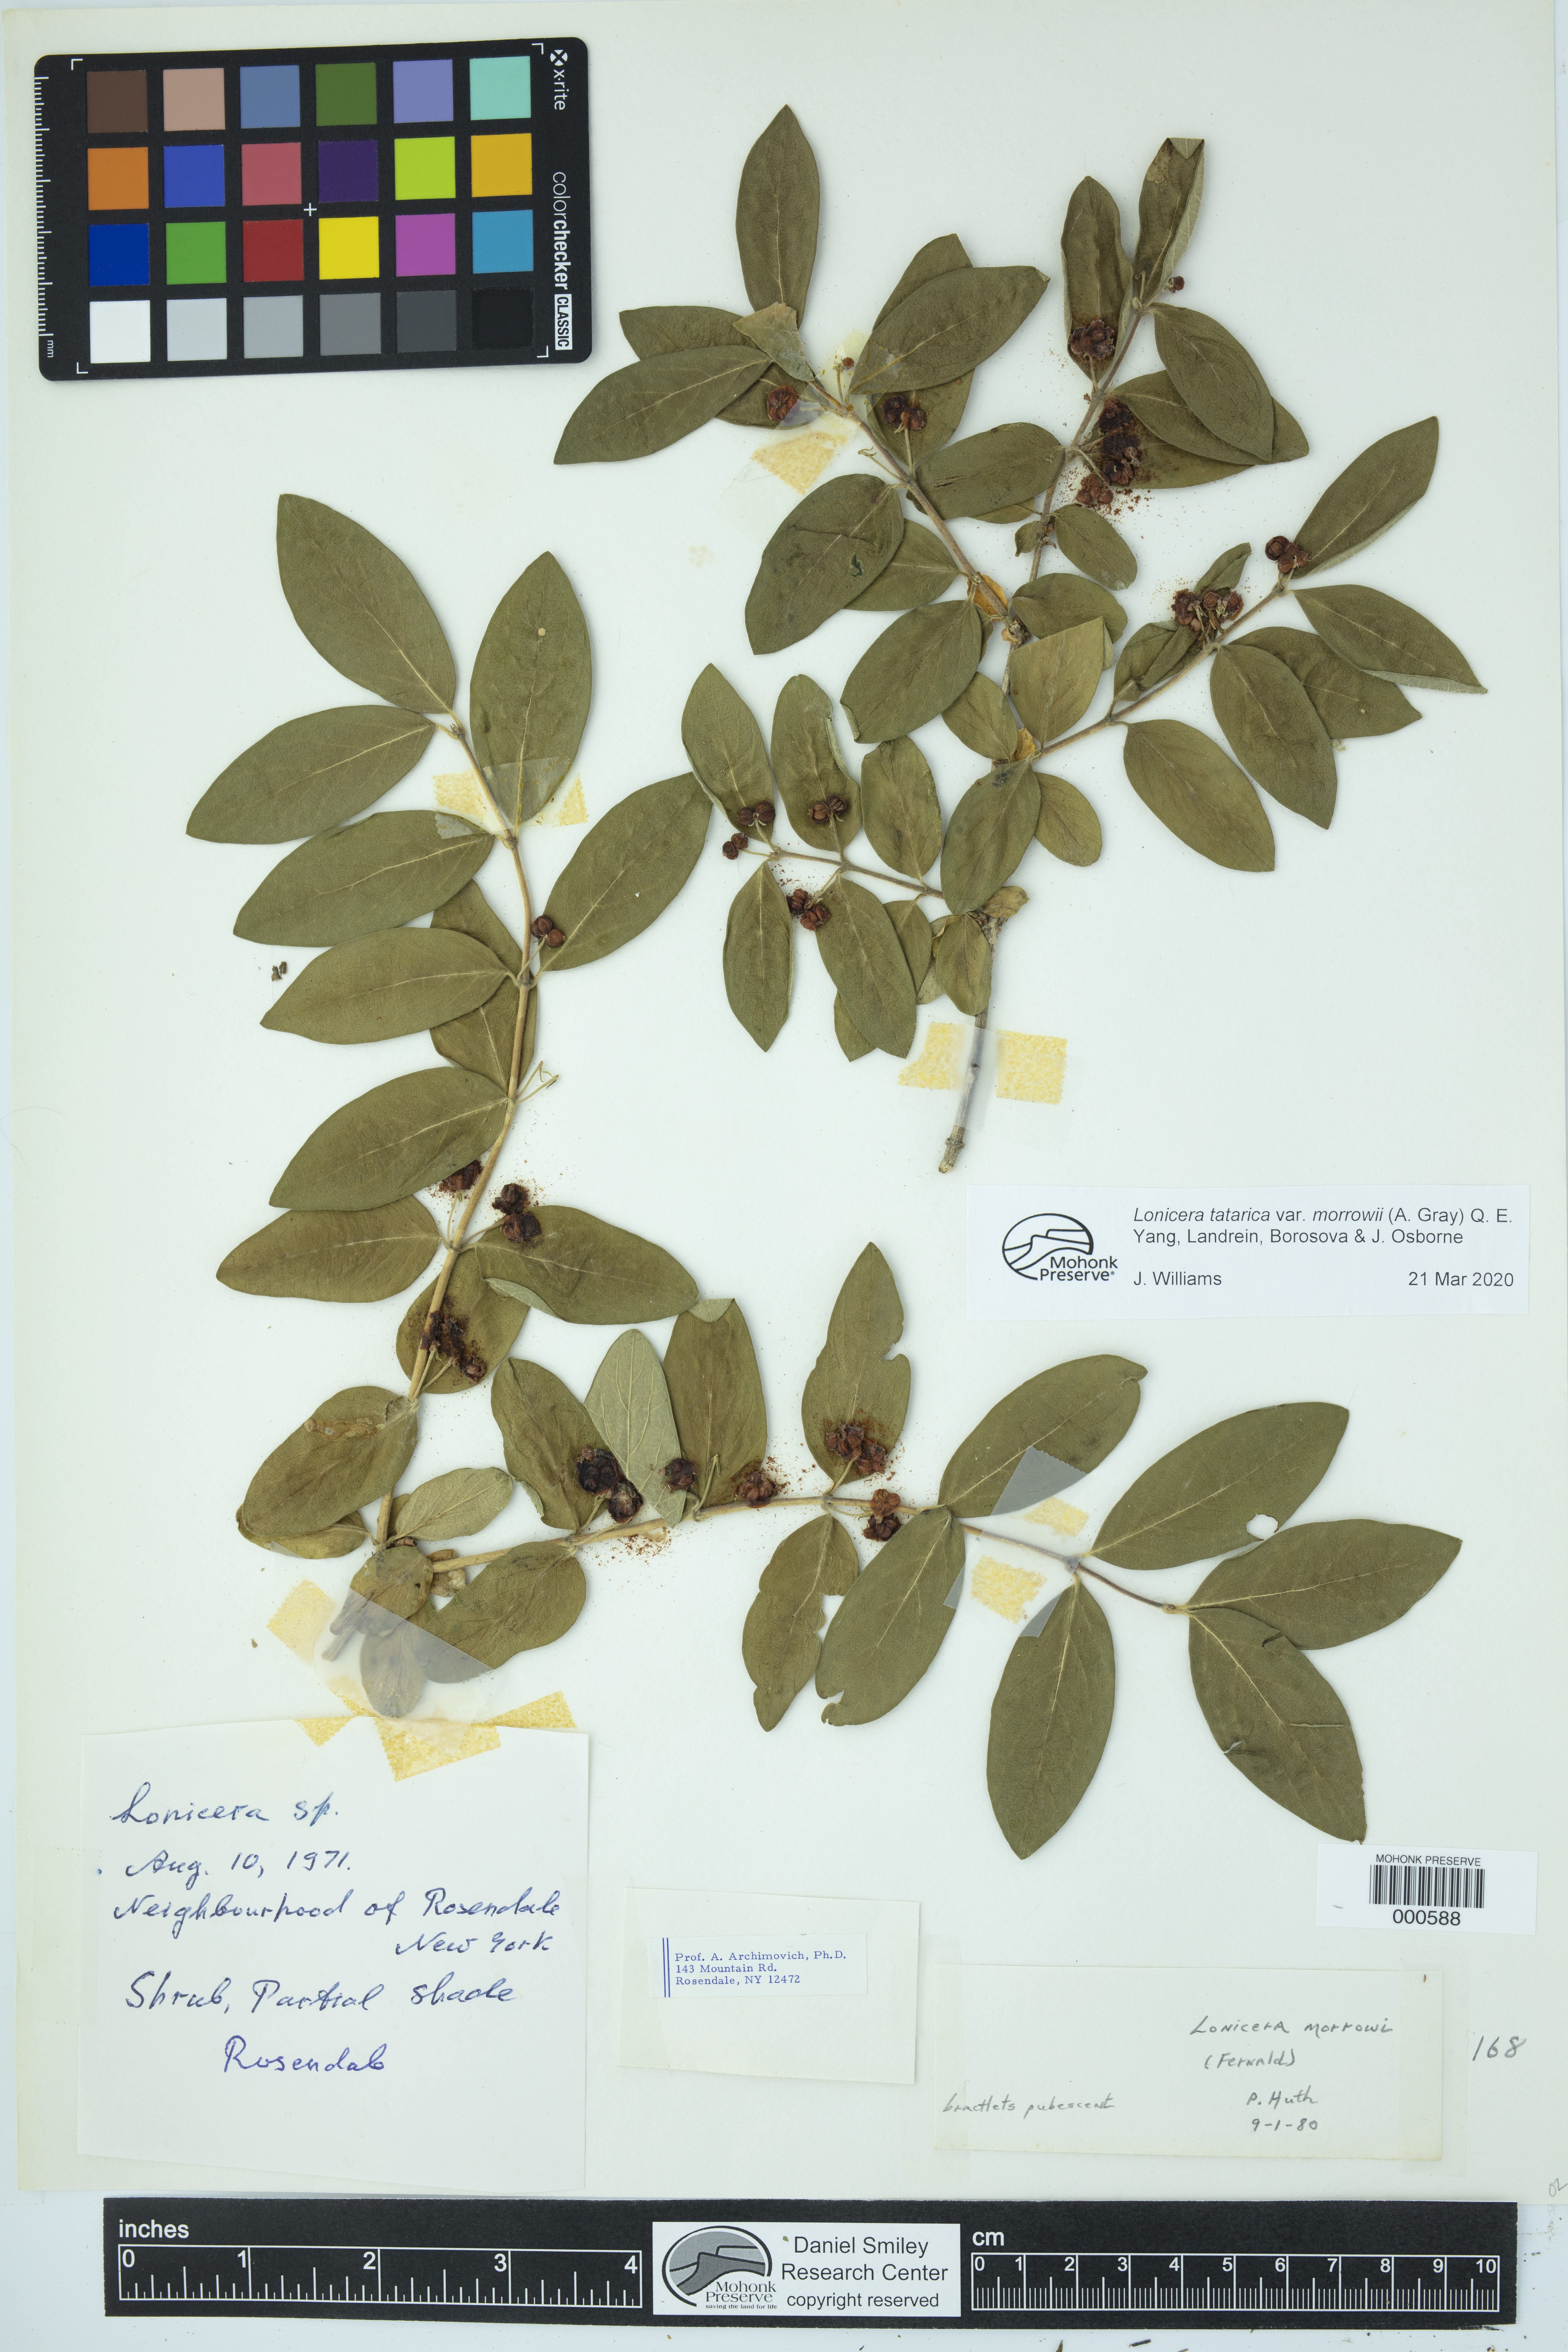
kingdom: Plantae
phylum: Tracheophyta
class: Magnoliopsida
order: Dipsacales
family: Caprifoliaceae
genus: Lonicera
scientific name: Lonicera morrowii
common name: Morrow's honeysuckle
